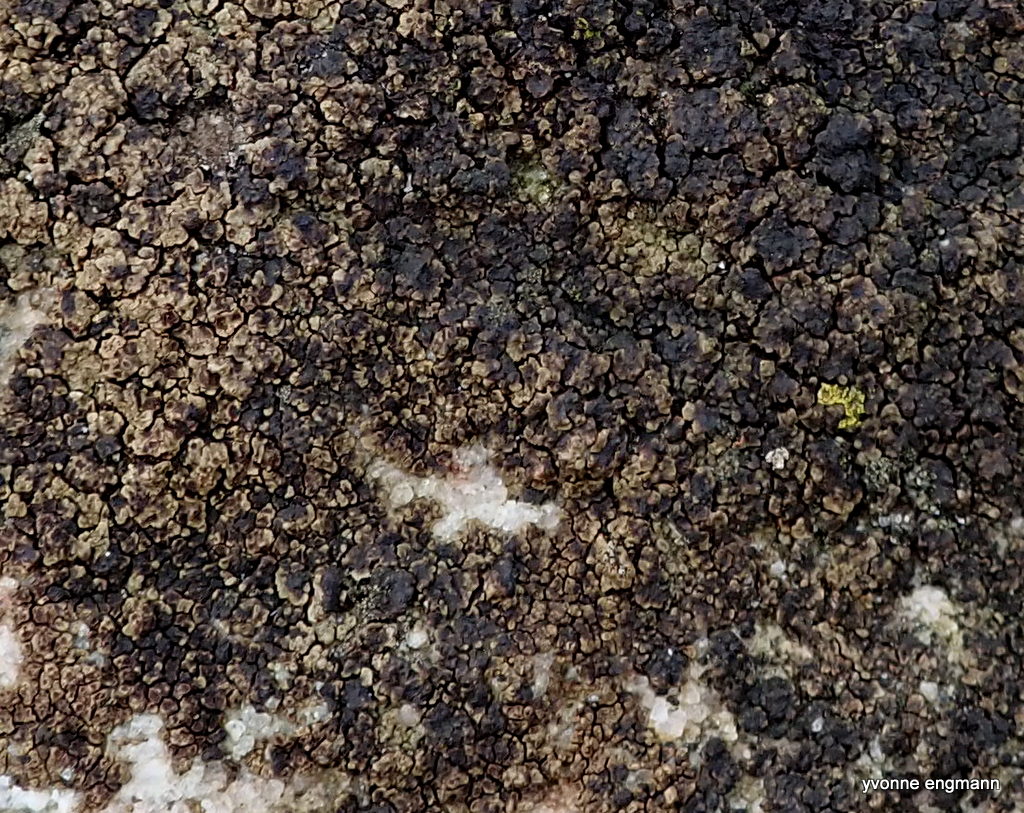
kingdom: Fungi
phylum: Ascomycota
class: Lecanoromycetes
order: Acarosporales
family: Acarosporaceae
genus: Acarospora
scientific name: Acarospora fuscata
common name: brun småsporelav
